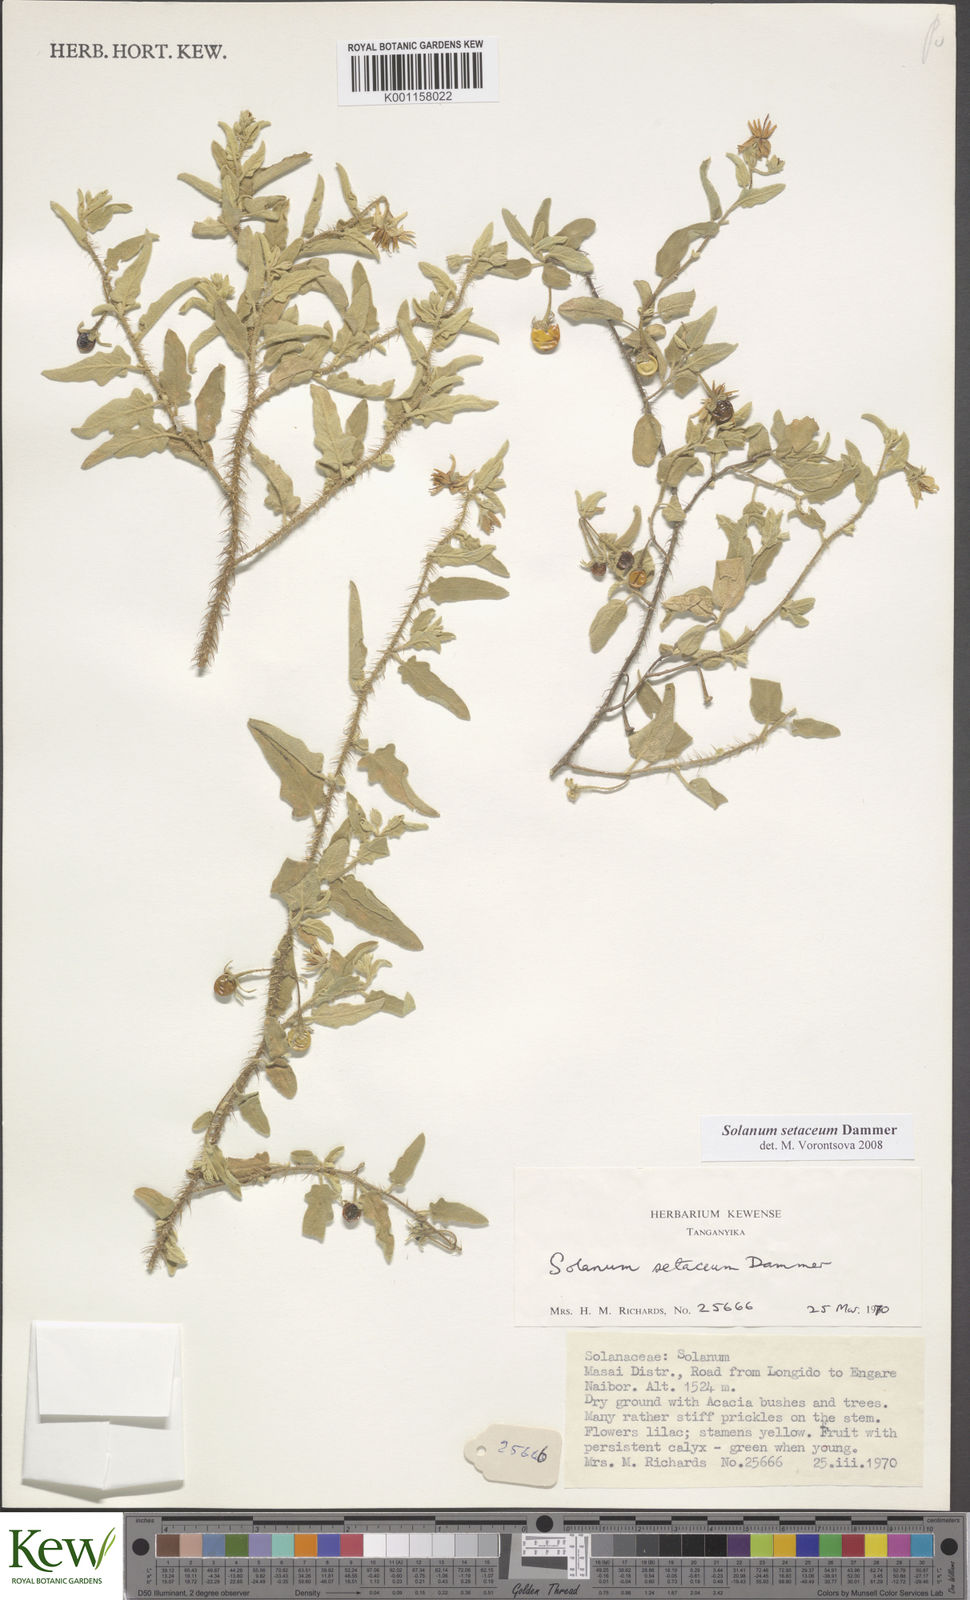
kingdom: Plantae
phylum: Tracheophyta
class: Magnoliopsida
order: Solanales
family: Solanaceae
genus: Solanum
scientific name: Solanum setaceum
